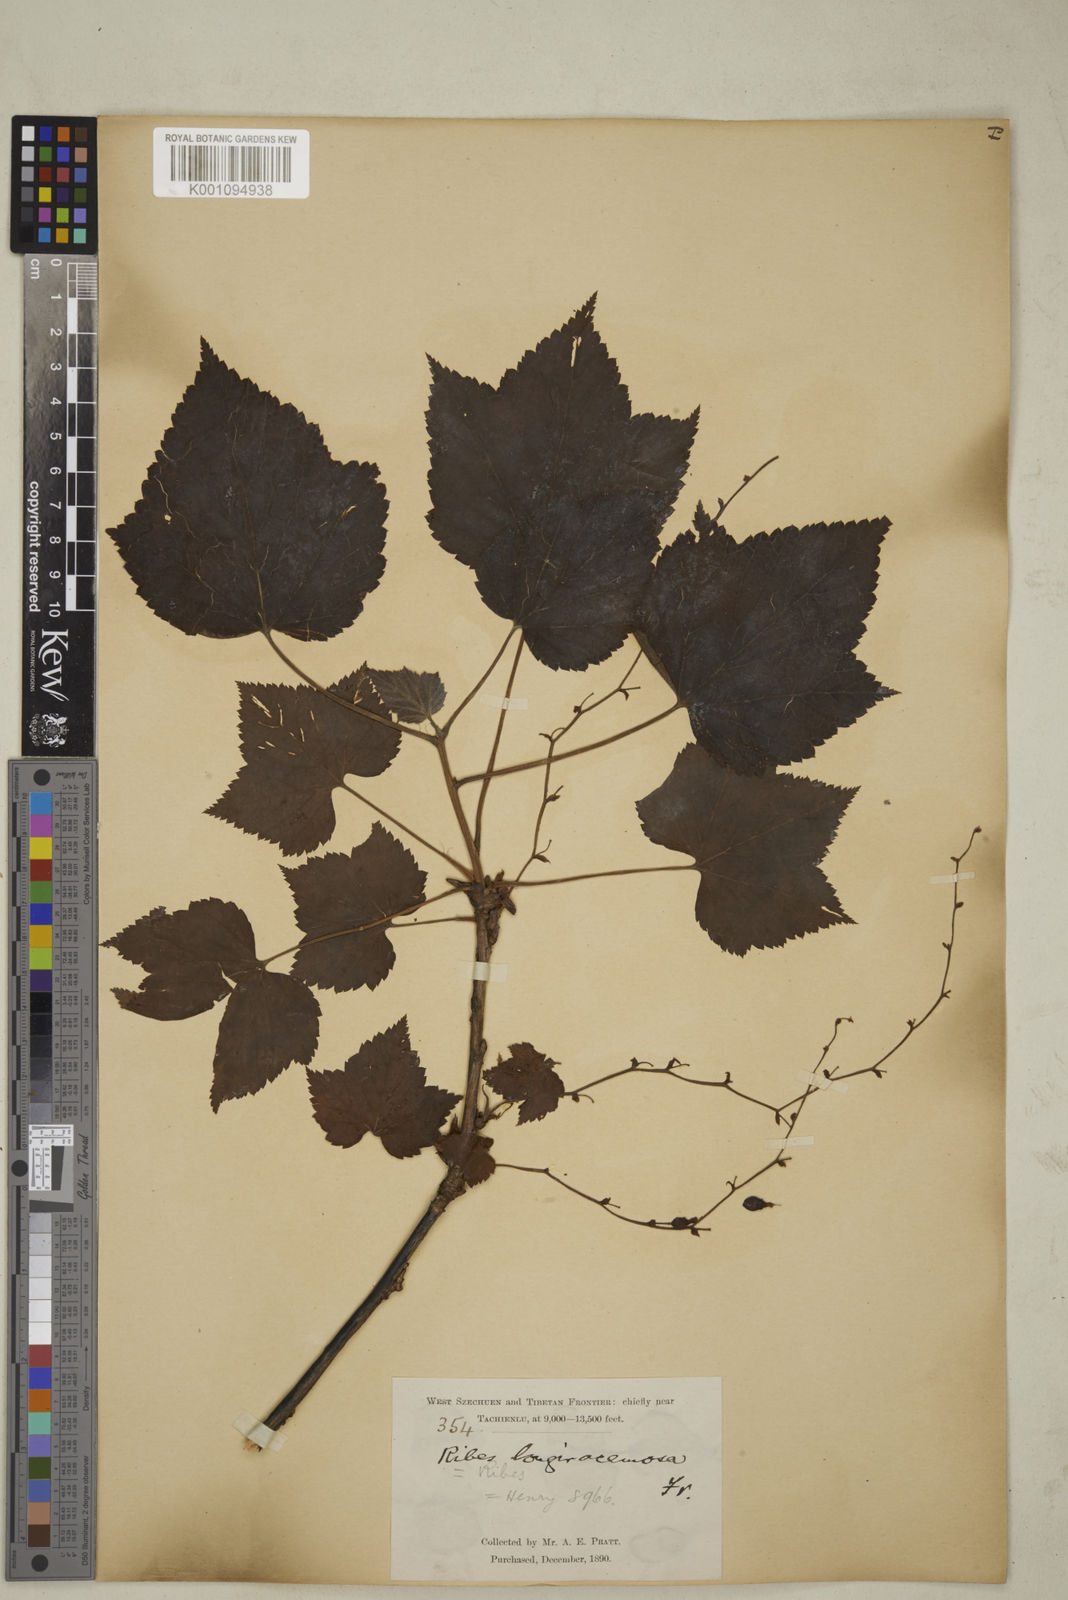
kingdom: Plantae
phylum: Tracheophyta
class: Magnoliopsida
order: Saxifragales
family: Grossulariaceae
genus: Ribes
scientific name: Ribes longeracemosum
